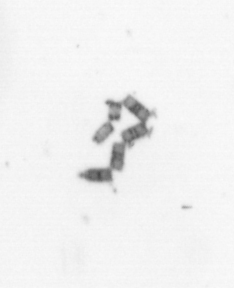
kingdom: Chromista
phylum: Ochrophyta
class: Bacillariophyceae
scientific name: Bacillariophyceae
